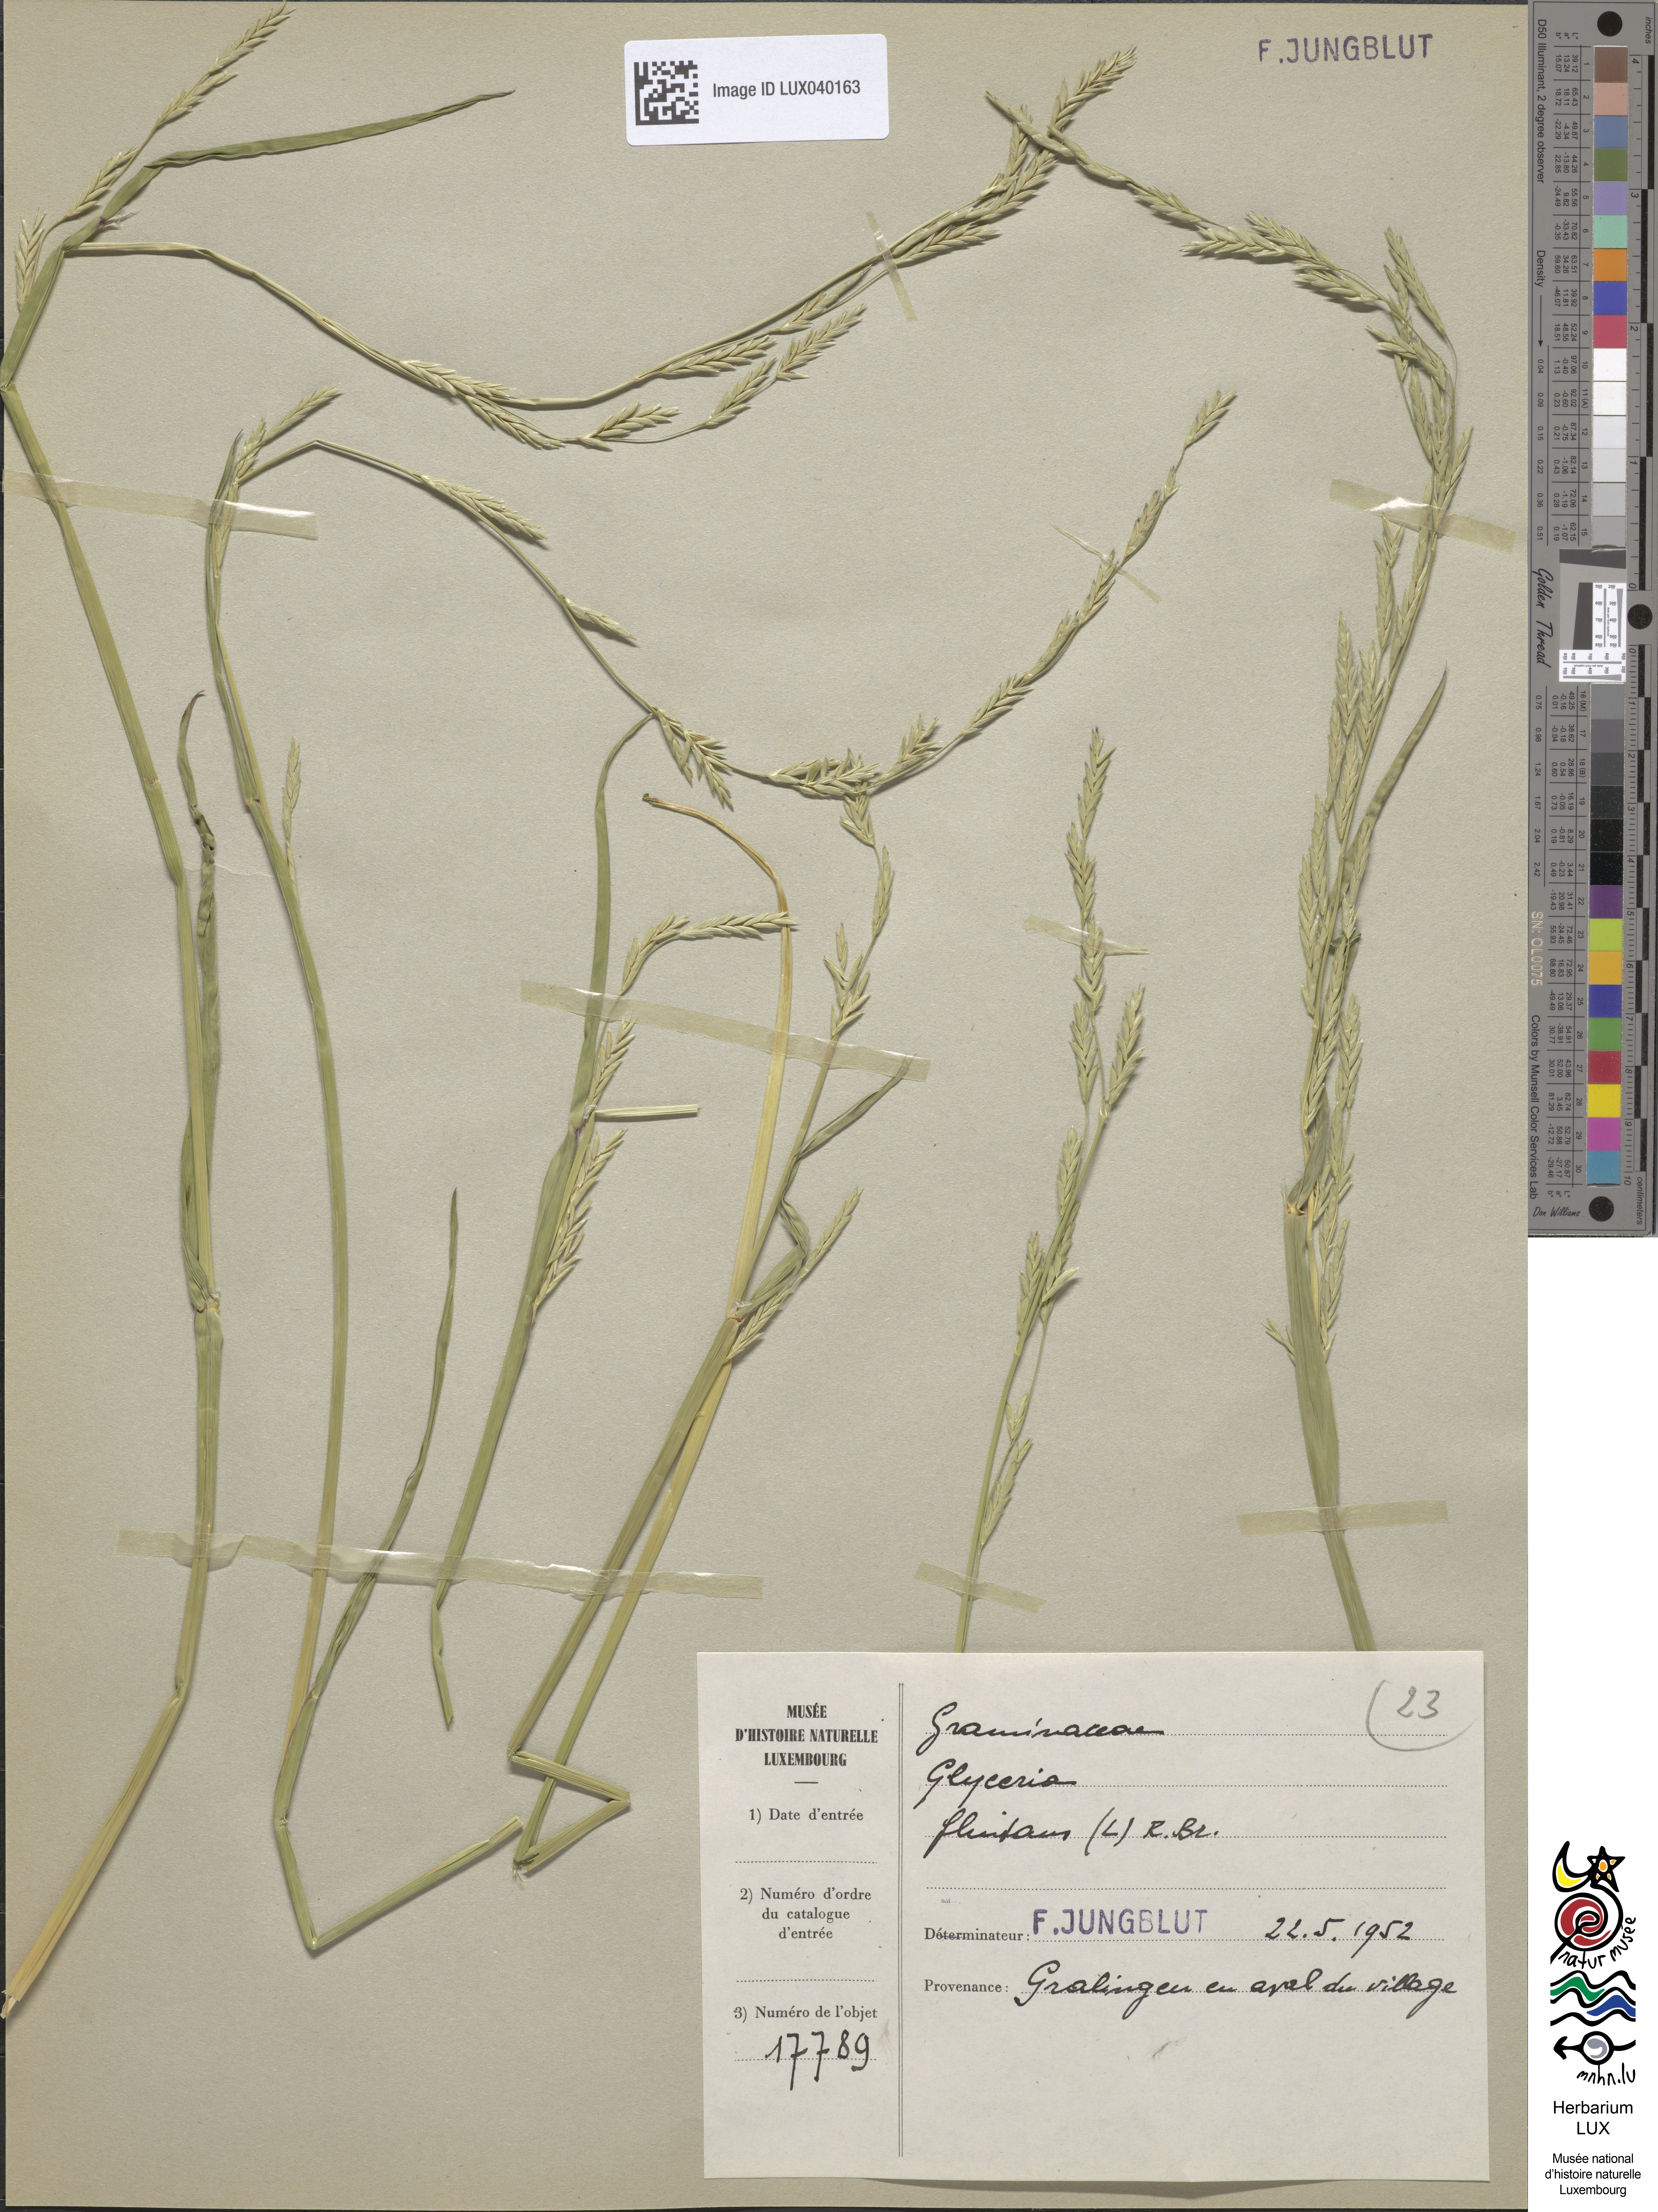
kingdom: Plantae
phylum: Tracheophyta
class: Liliopsida
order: Poales
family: Poaceae
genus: Glyceria
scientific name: Glyceria fluitans
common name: Floating sweet-grass
